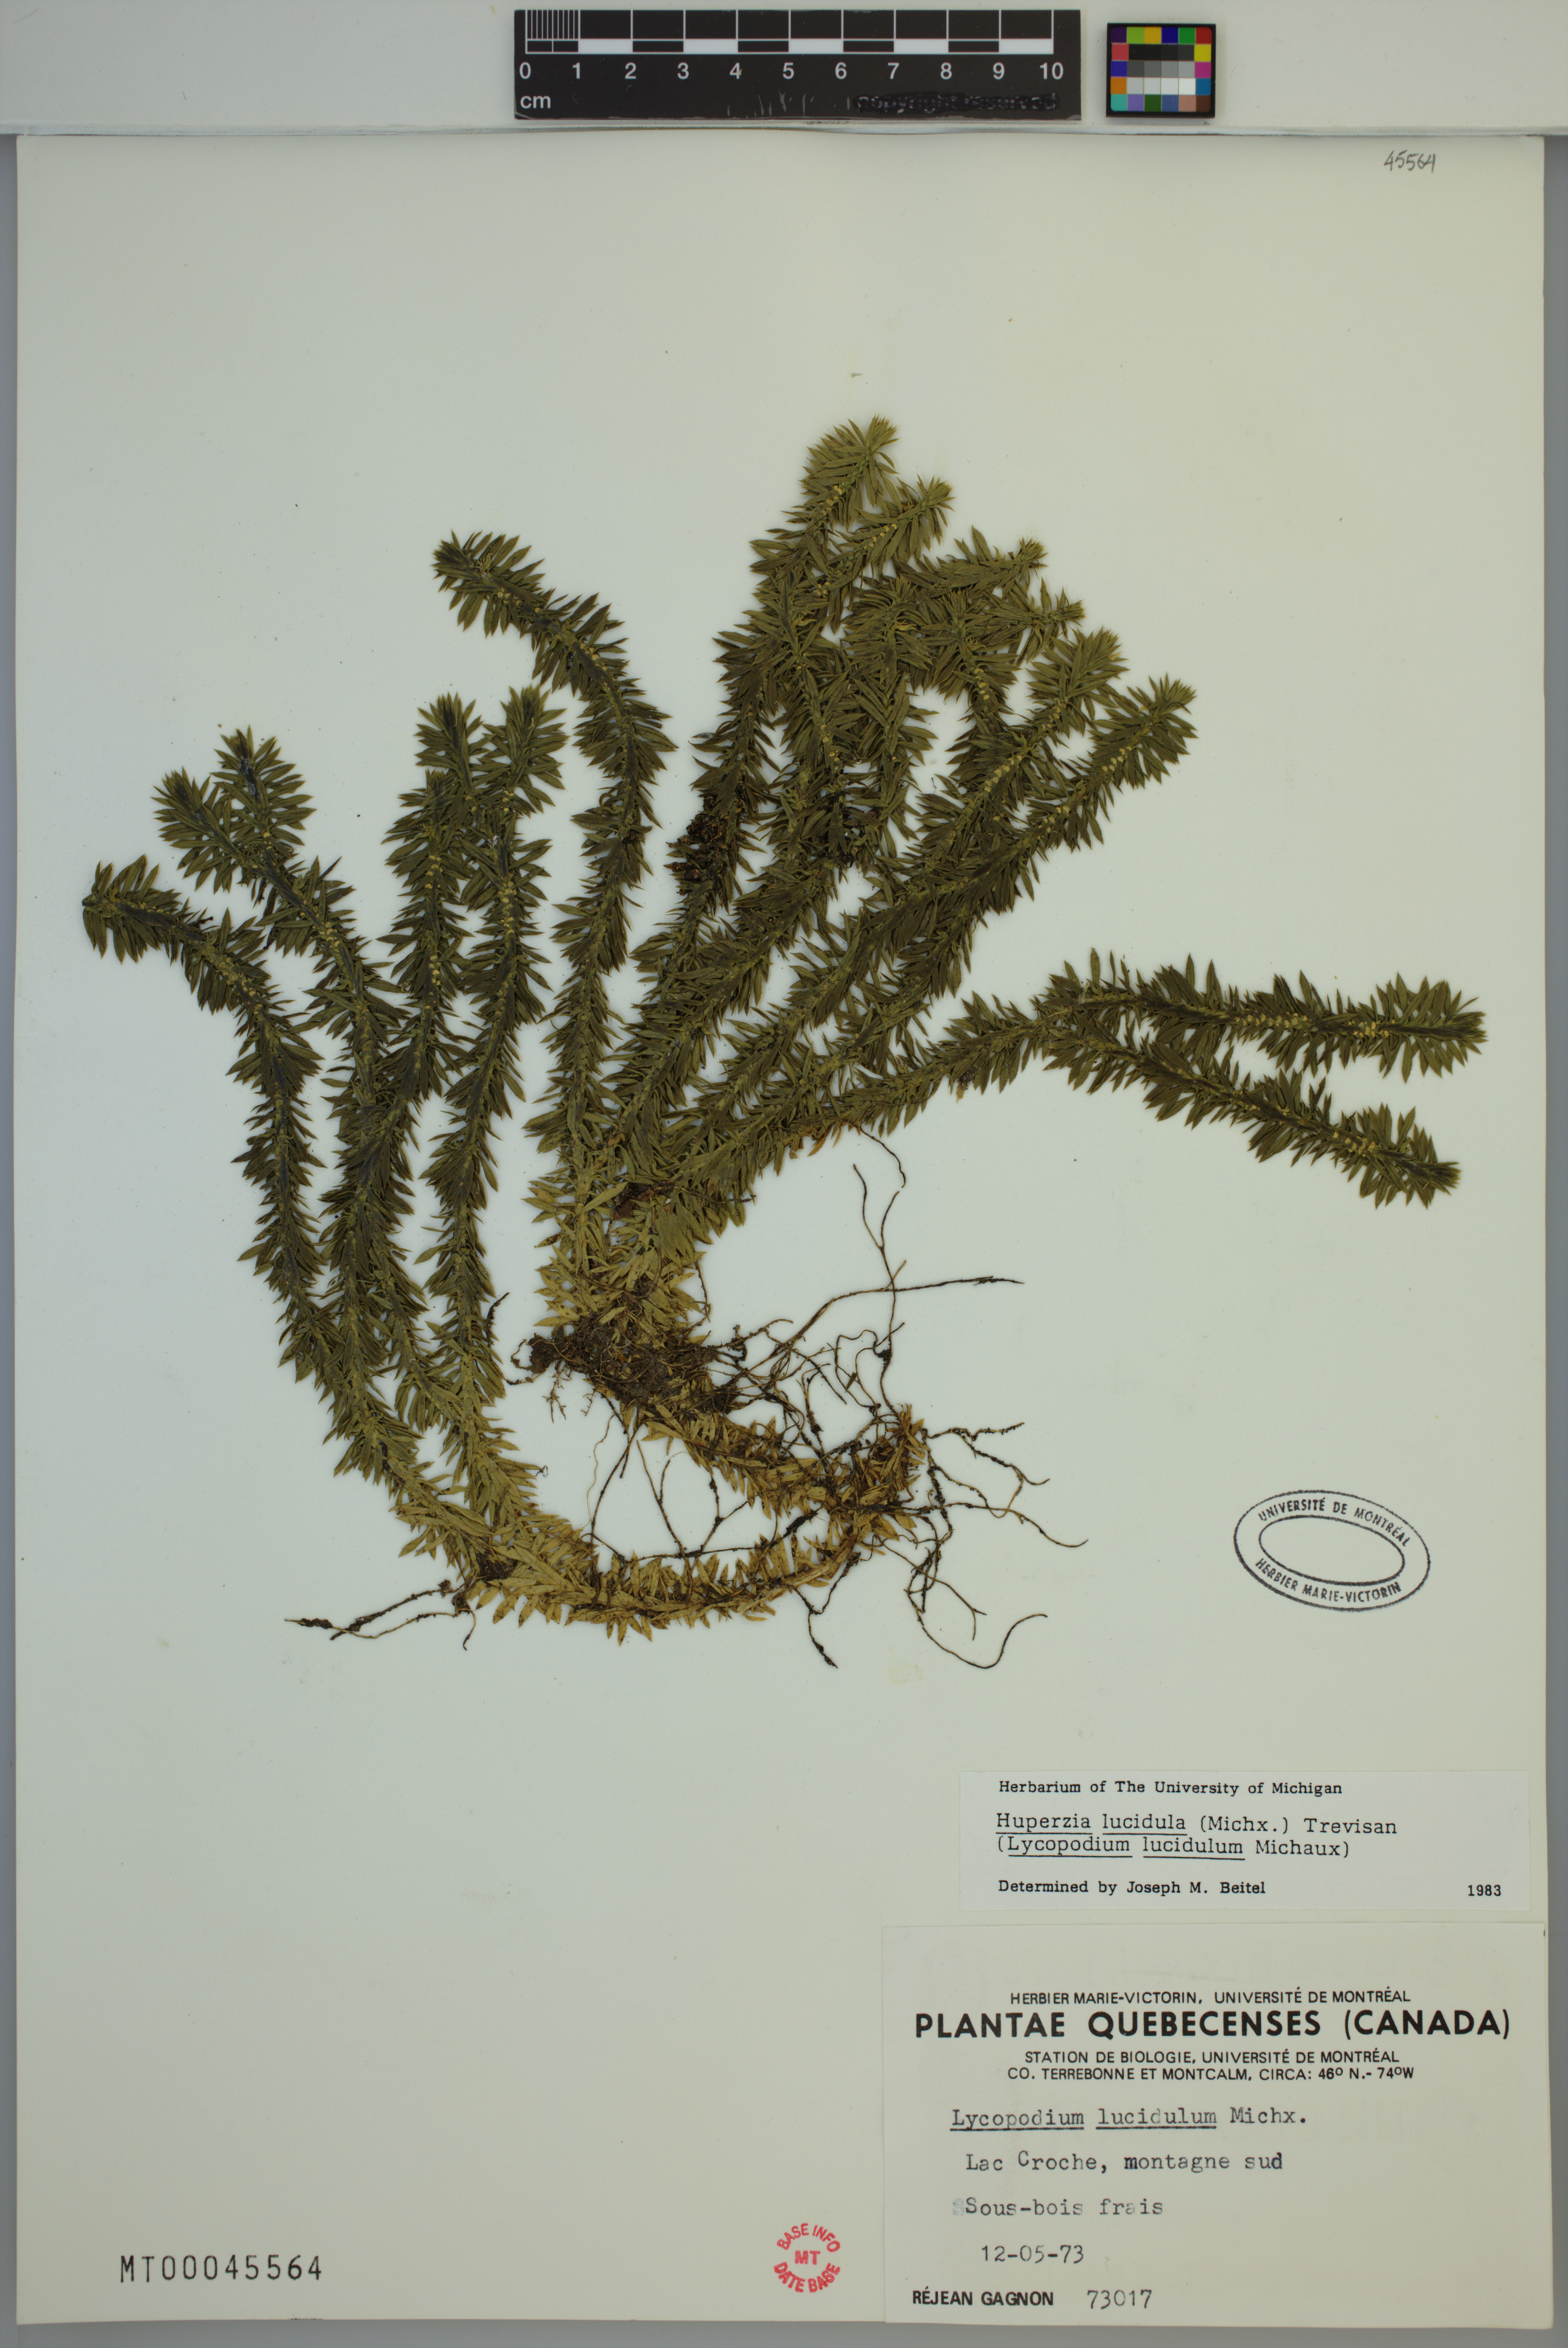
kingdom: Plantae
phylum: Tracheophyta
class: Lycopodiopsida
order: Lycopodiales
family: Lycopodiaceae
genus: Huperzia
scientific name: Huperzia lucidula
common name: Shining clubmoss
